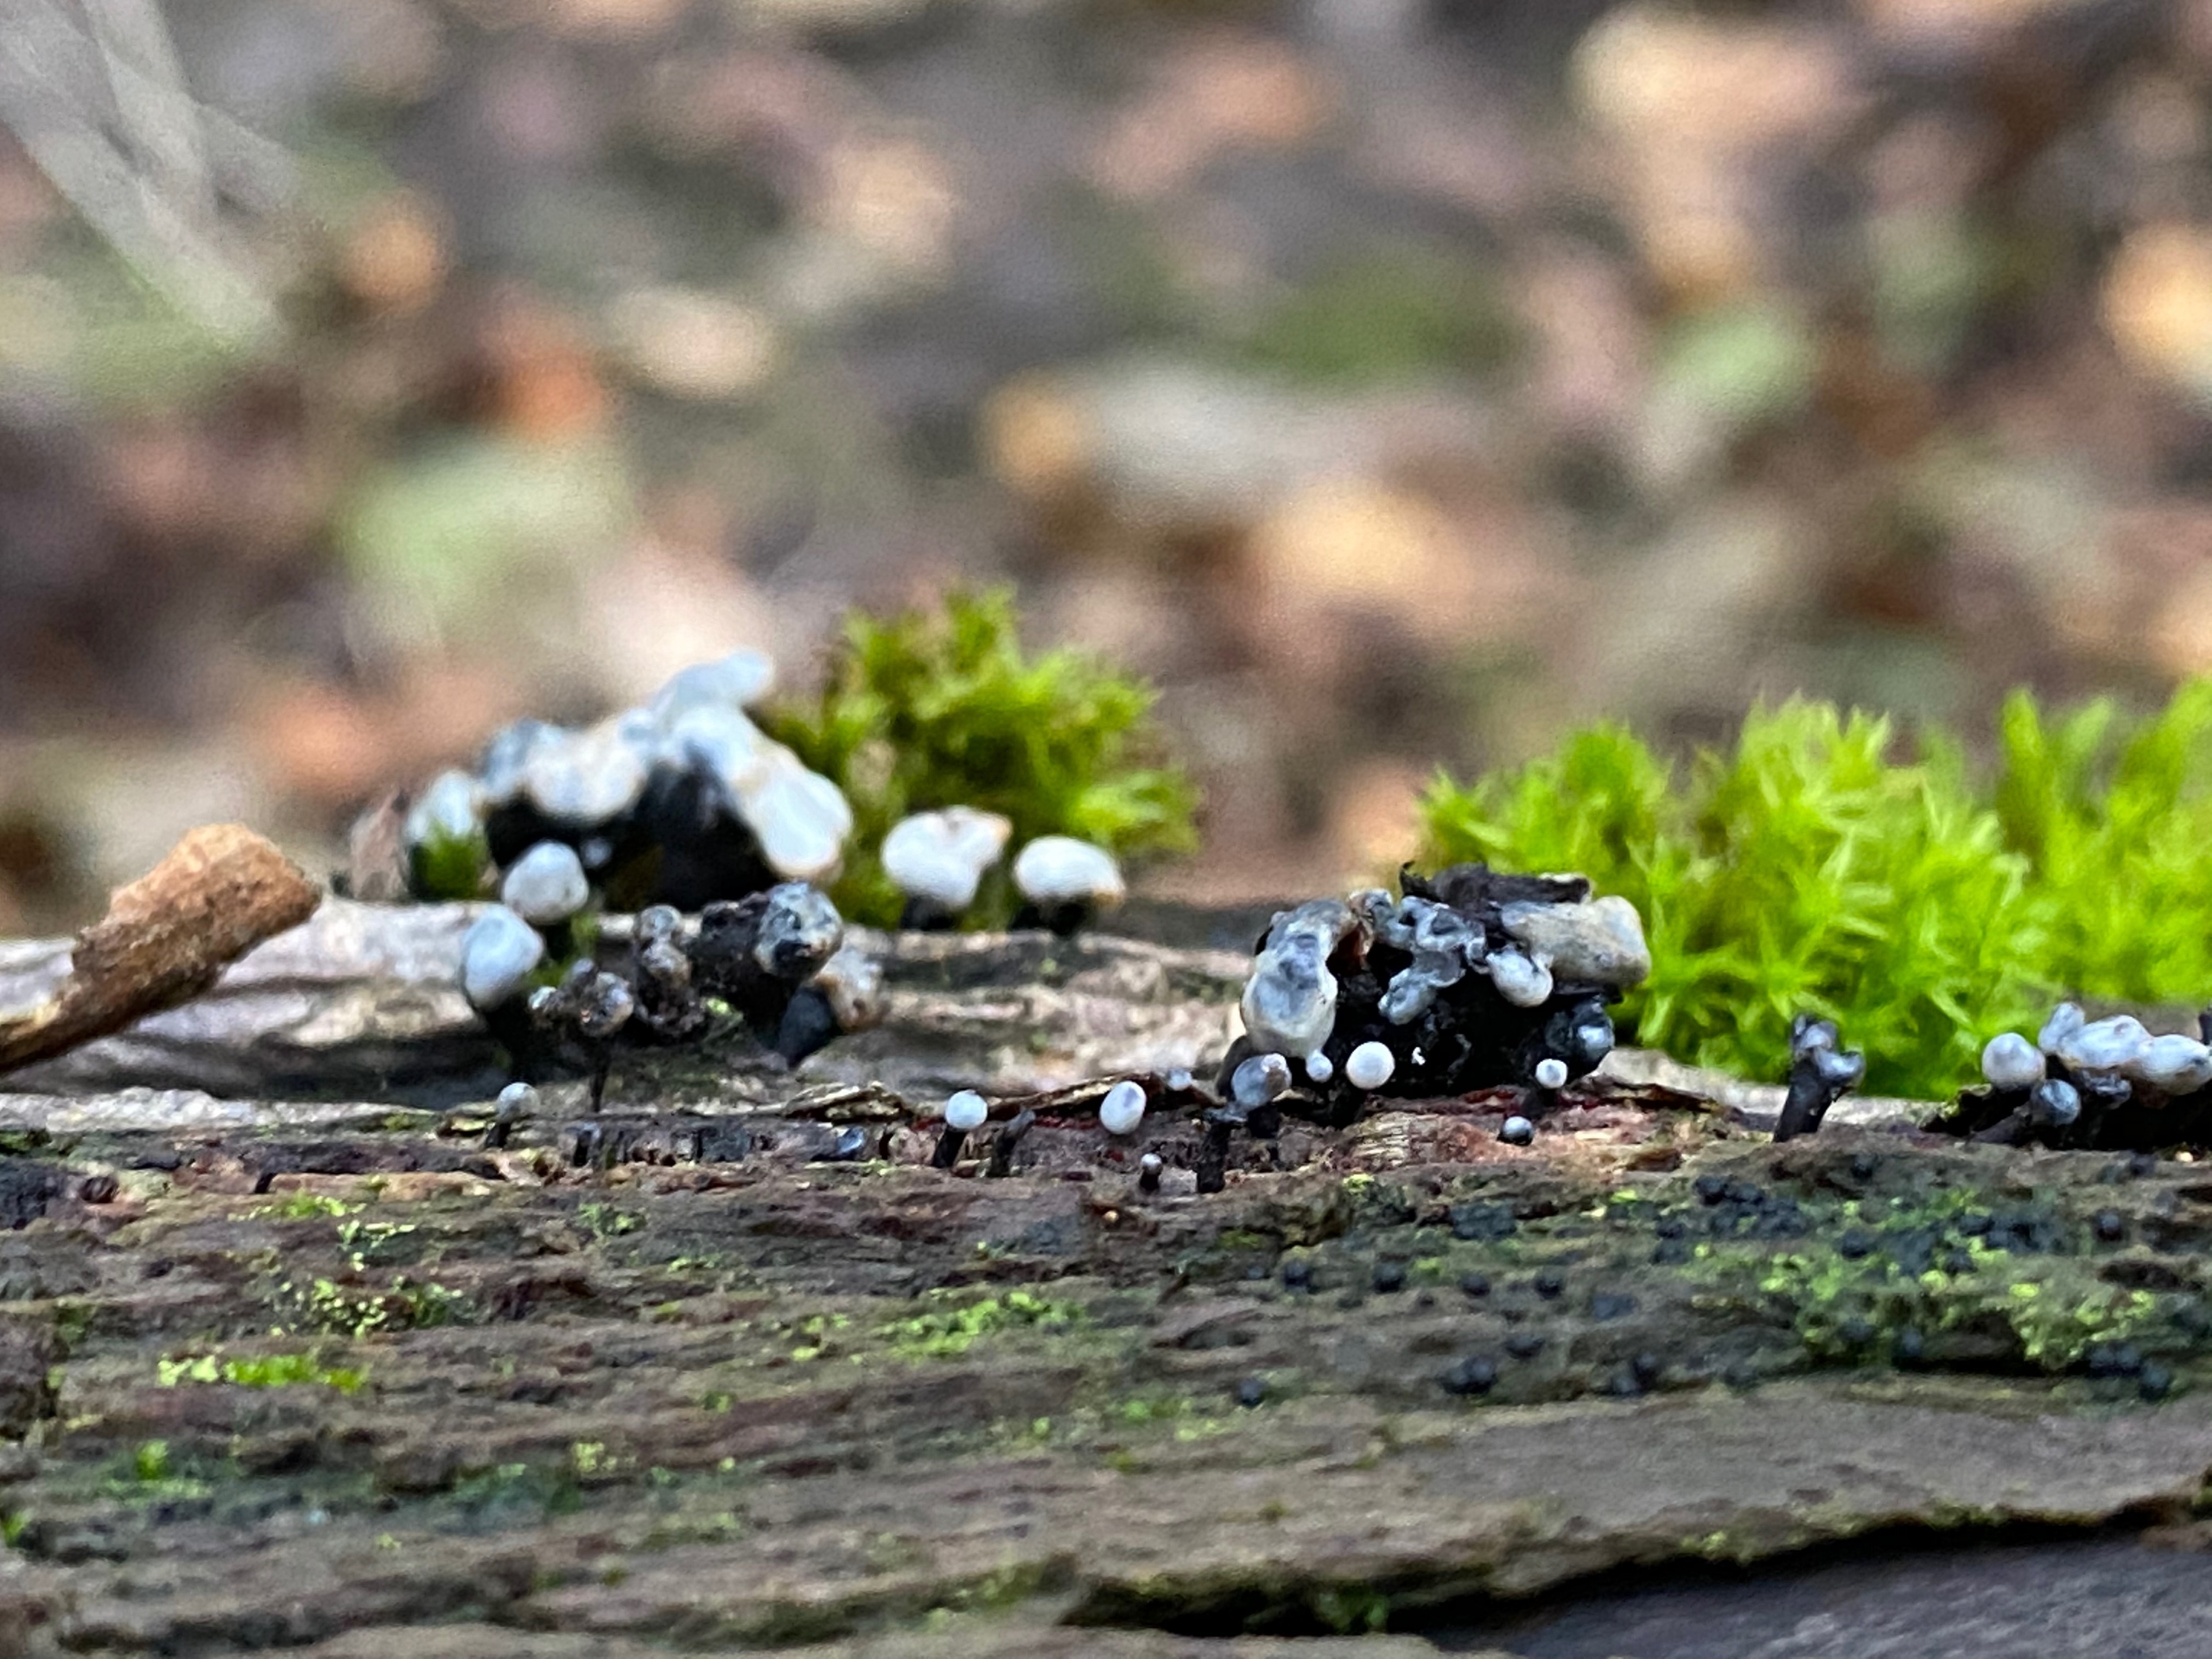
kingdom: Fungi
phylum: Ascomycota
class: Leotiomycetes
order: Helotiales
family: Bulgariaceae
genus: Holwaya
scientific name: Holwaya mucida
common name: Lindeskive
